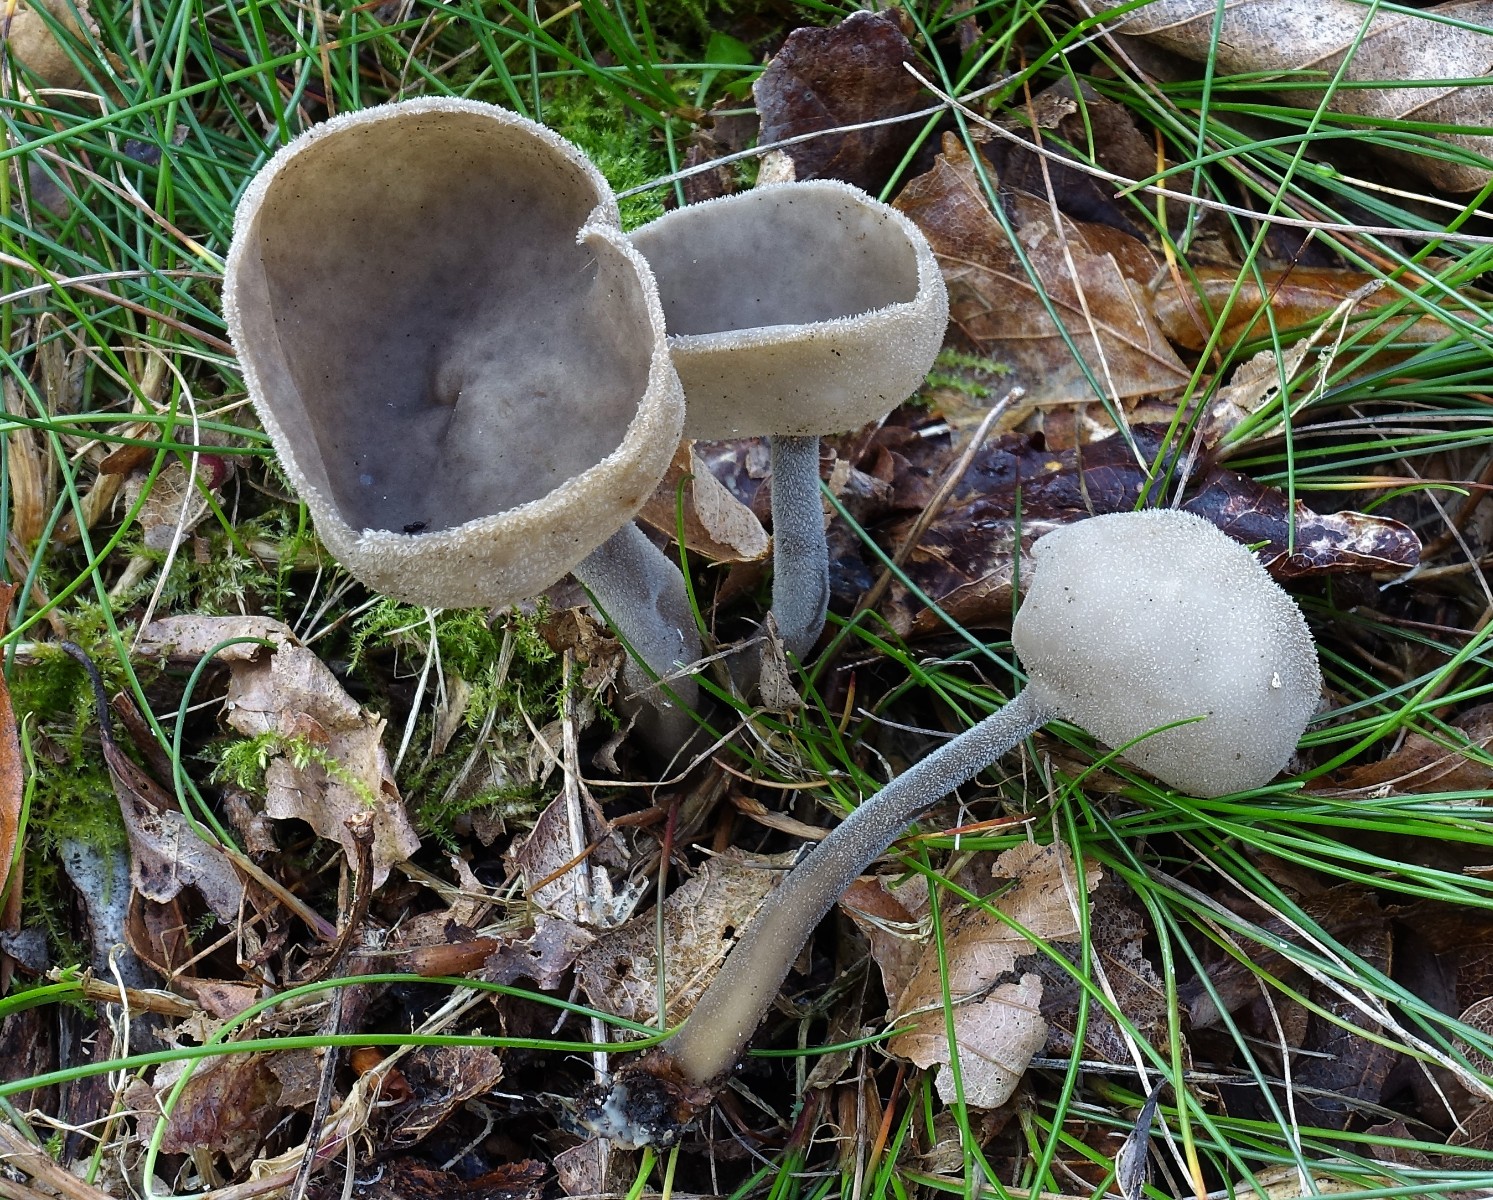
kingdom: Fungi
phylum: Ascomycota
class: Pezizomycetes
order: Pezizales
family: Helvellaceae
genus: Helvella
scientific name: Helvella macropus
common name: højstokket foldhat
